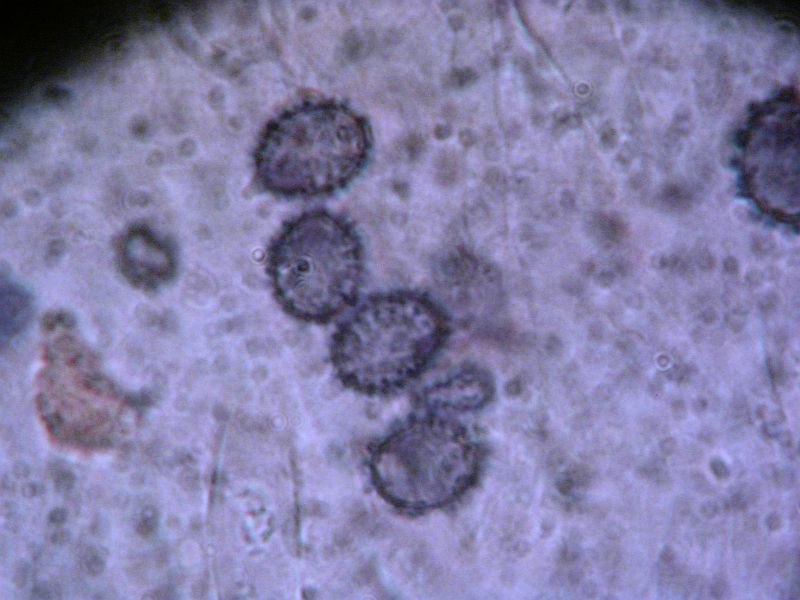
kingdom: Fungi
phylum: Basidiomycota
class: Agaricomycetes
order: Russulales
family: Russulaceae
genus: Russula
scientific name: Russula saliceticola
